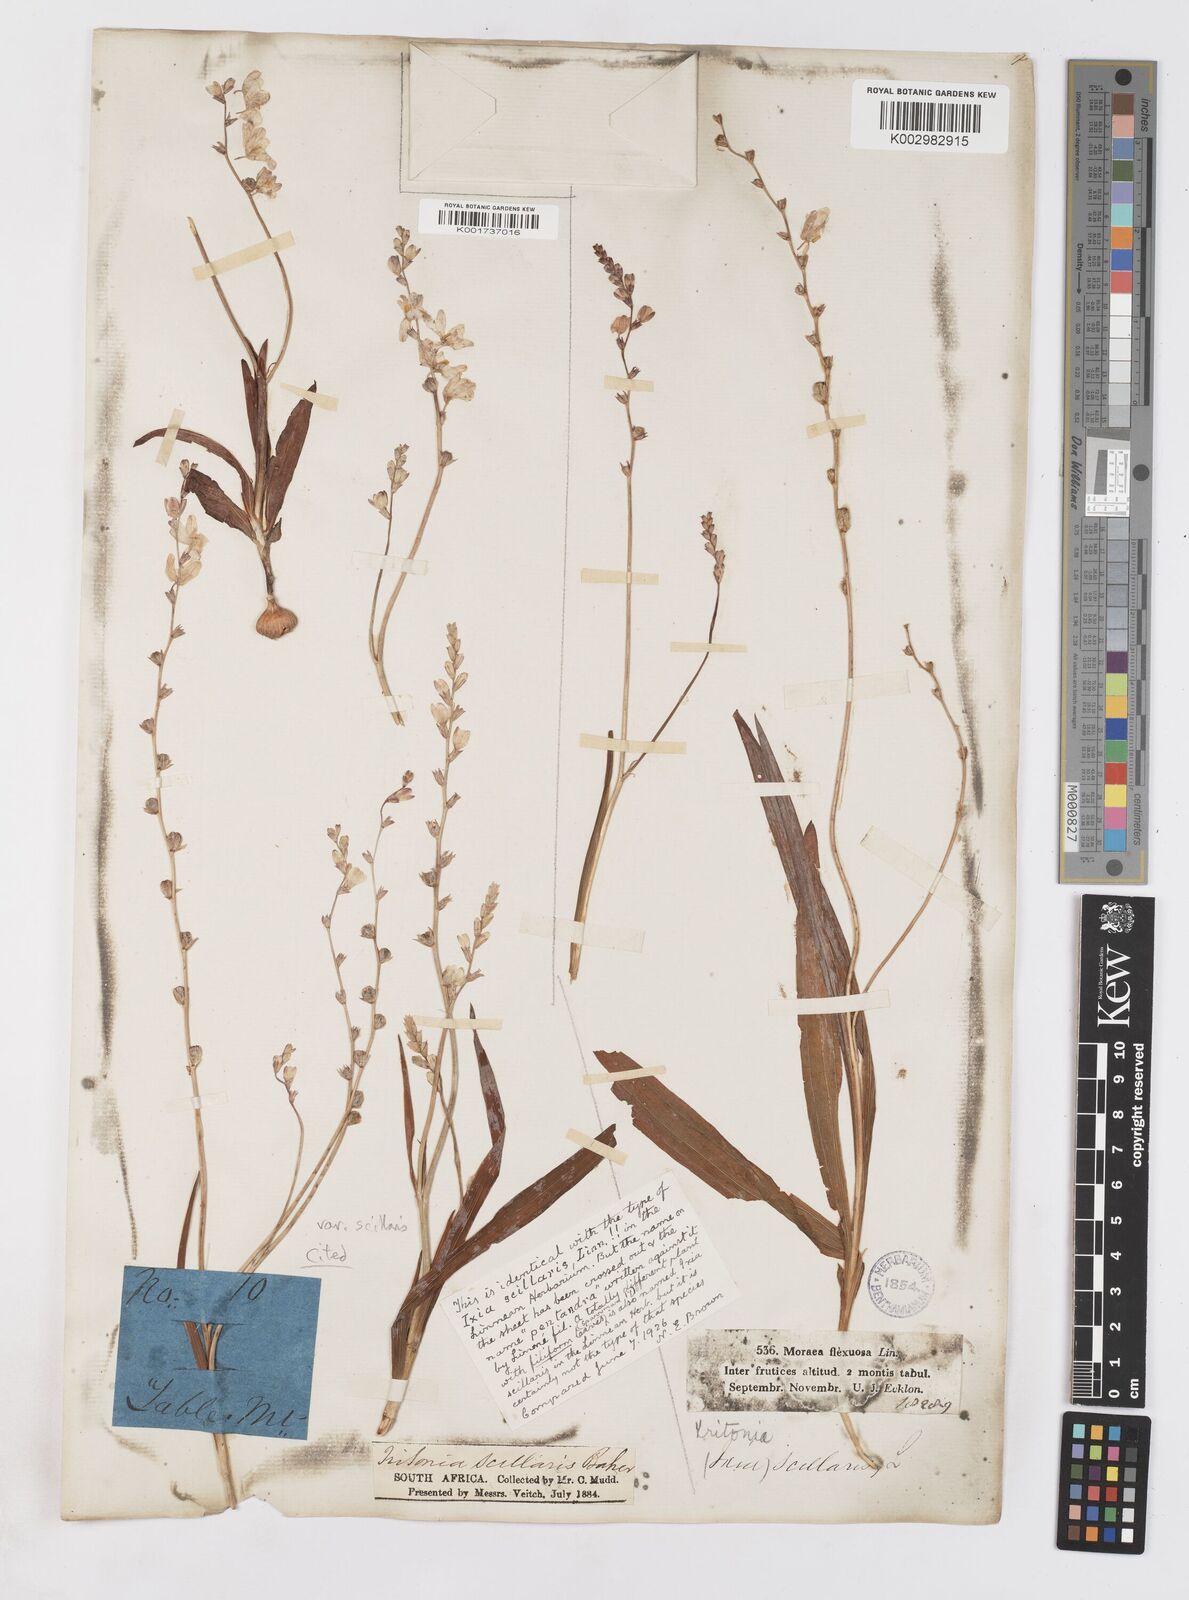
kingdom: Plantae
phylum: Tracheophyta
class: Liliopsida
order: Asparagales
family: Iridaceae
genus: Ixia
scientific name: Ixia scillaris
